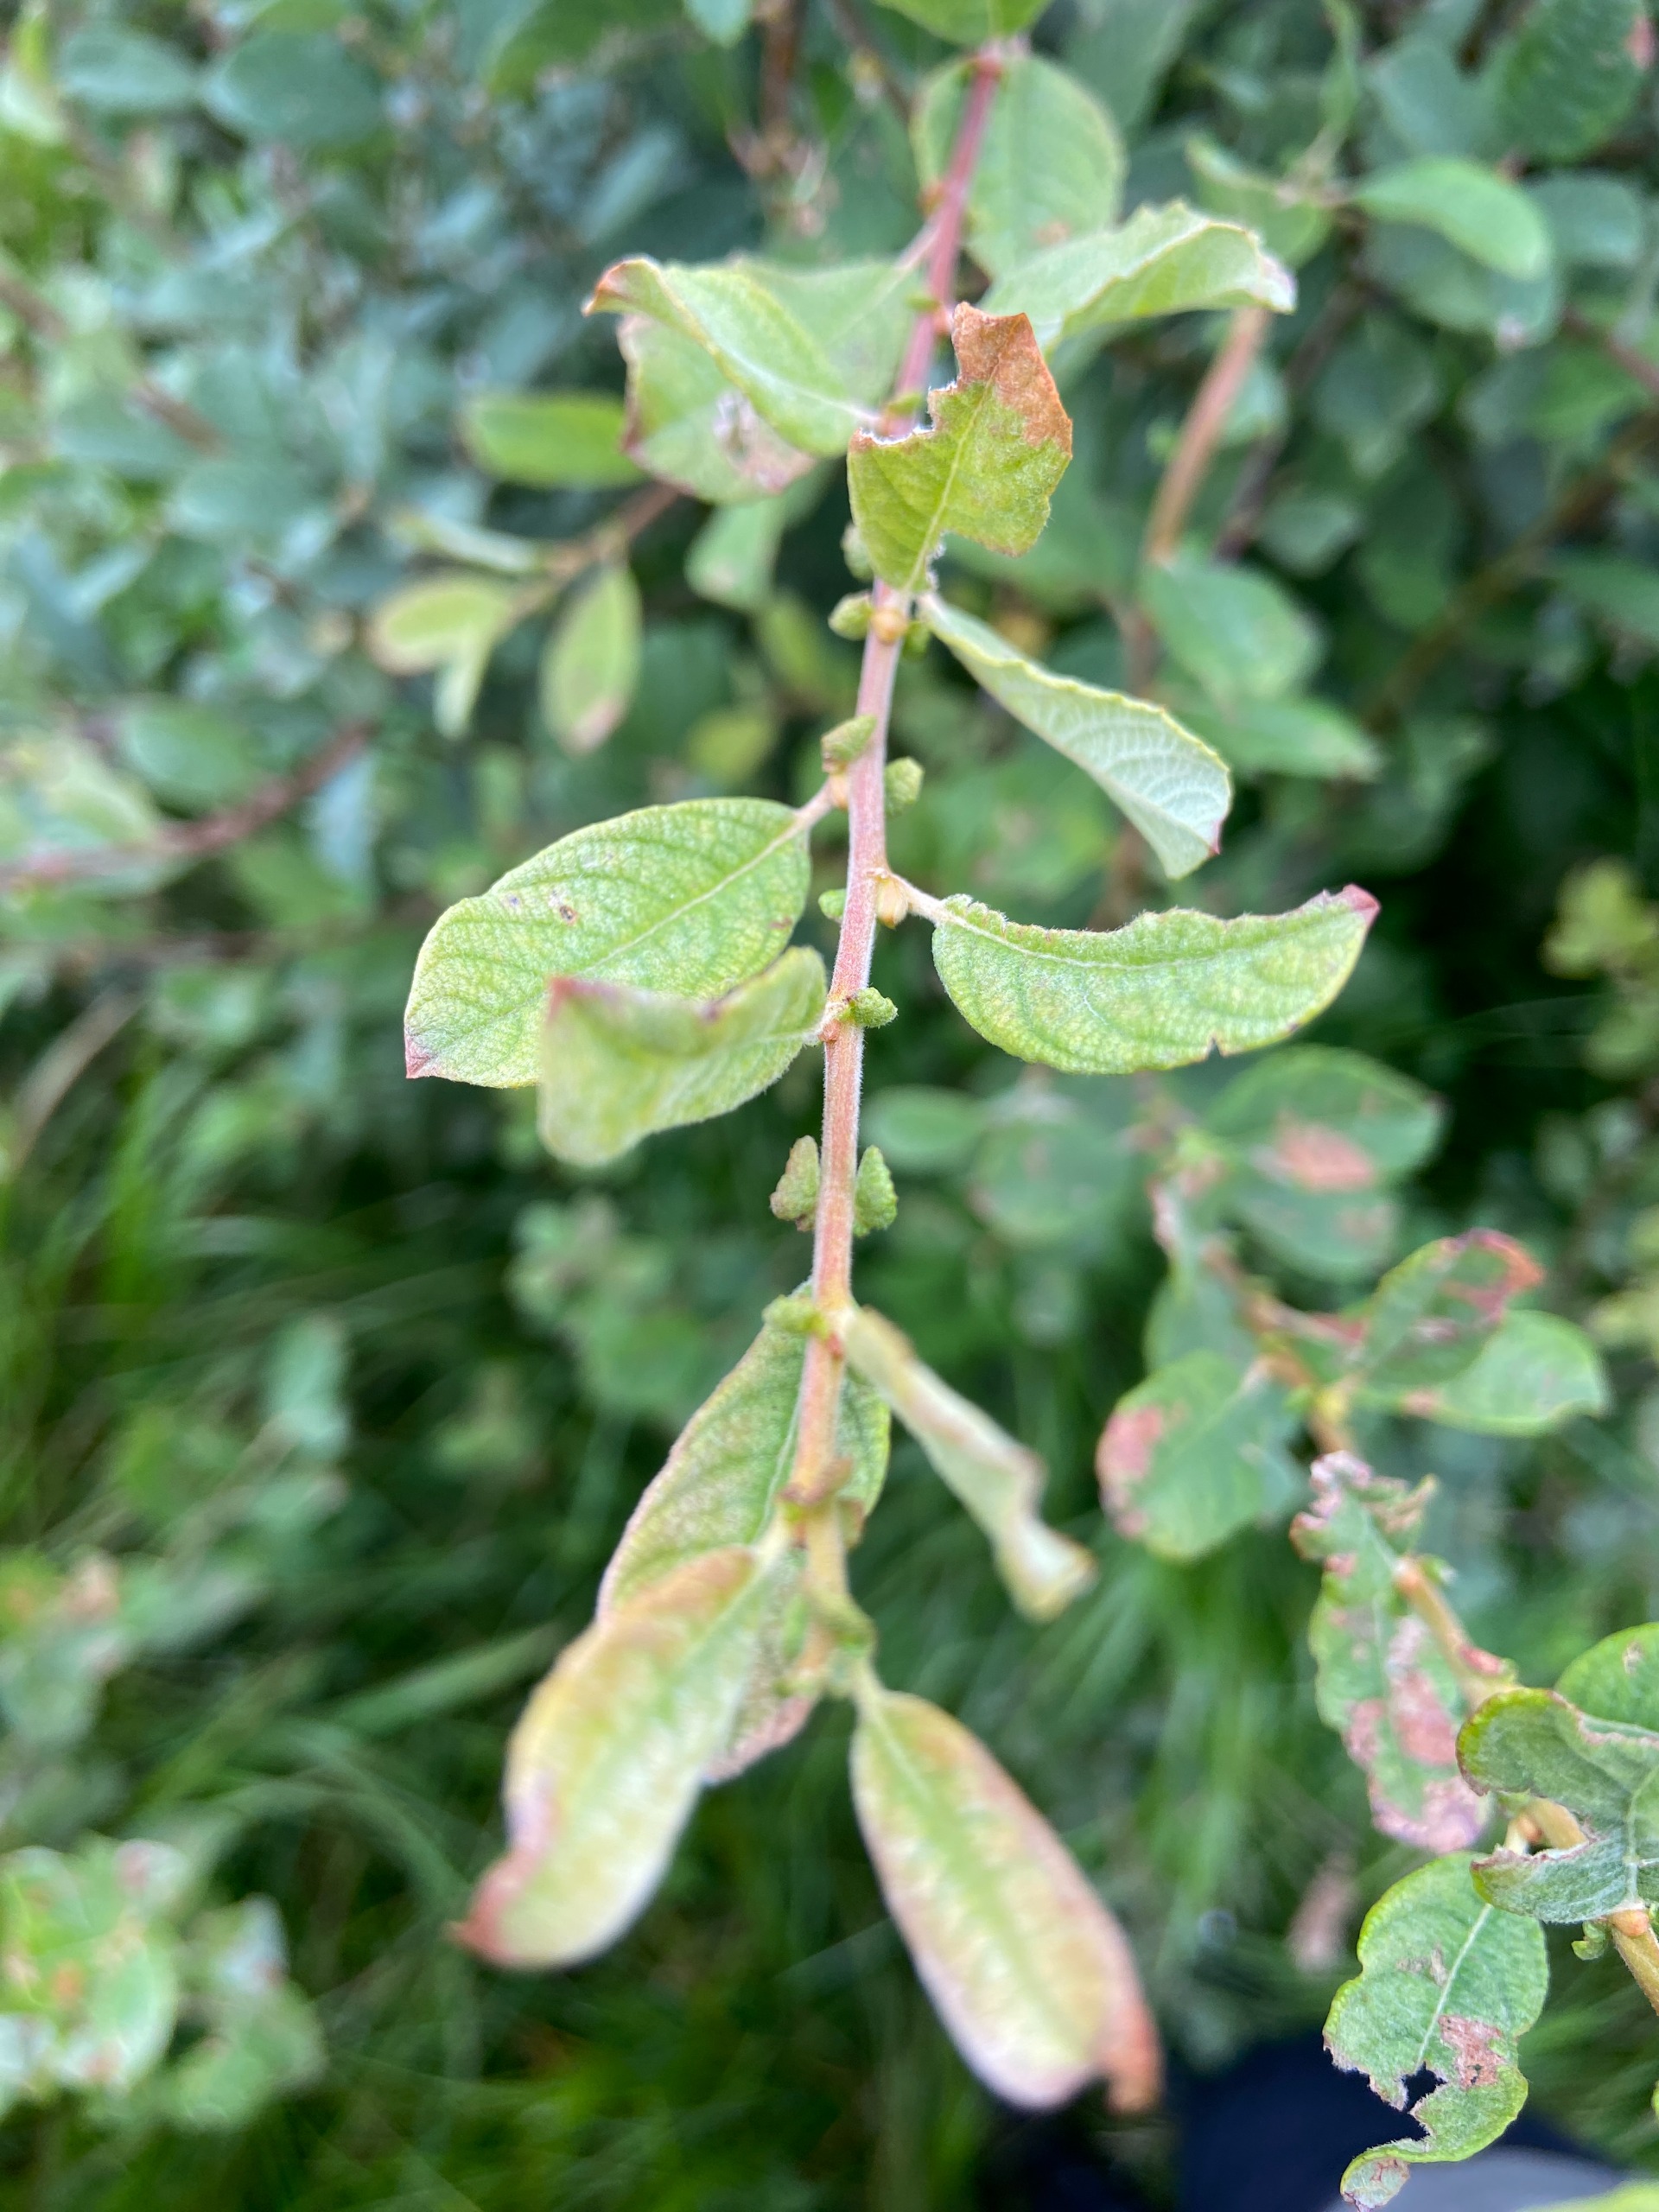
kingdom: Plantae
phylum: Tracheophyta
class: Magnoliopsida
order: Malpighiales
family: Salicaceae
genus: Salix
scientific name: Salix aurita
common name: Øret pil
